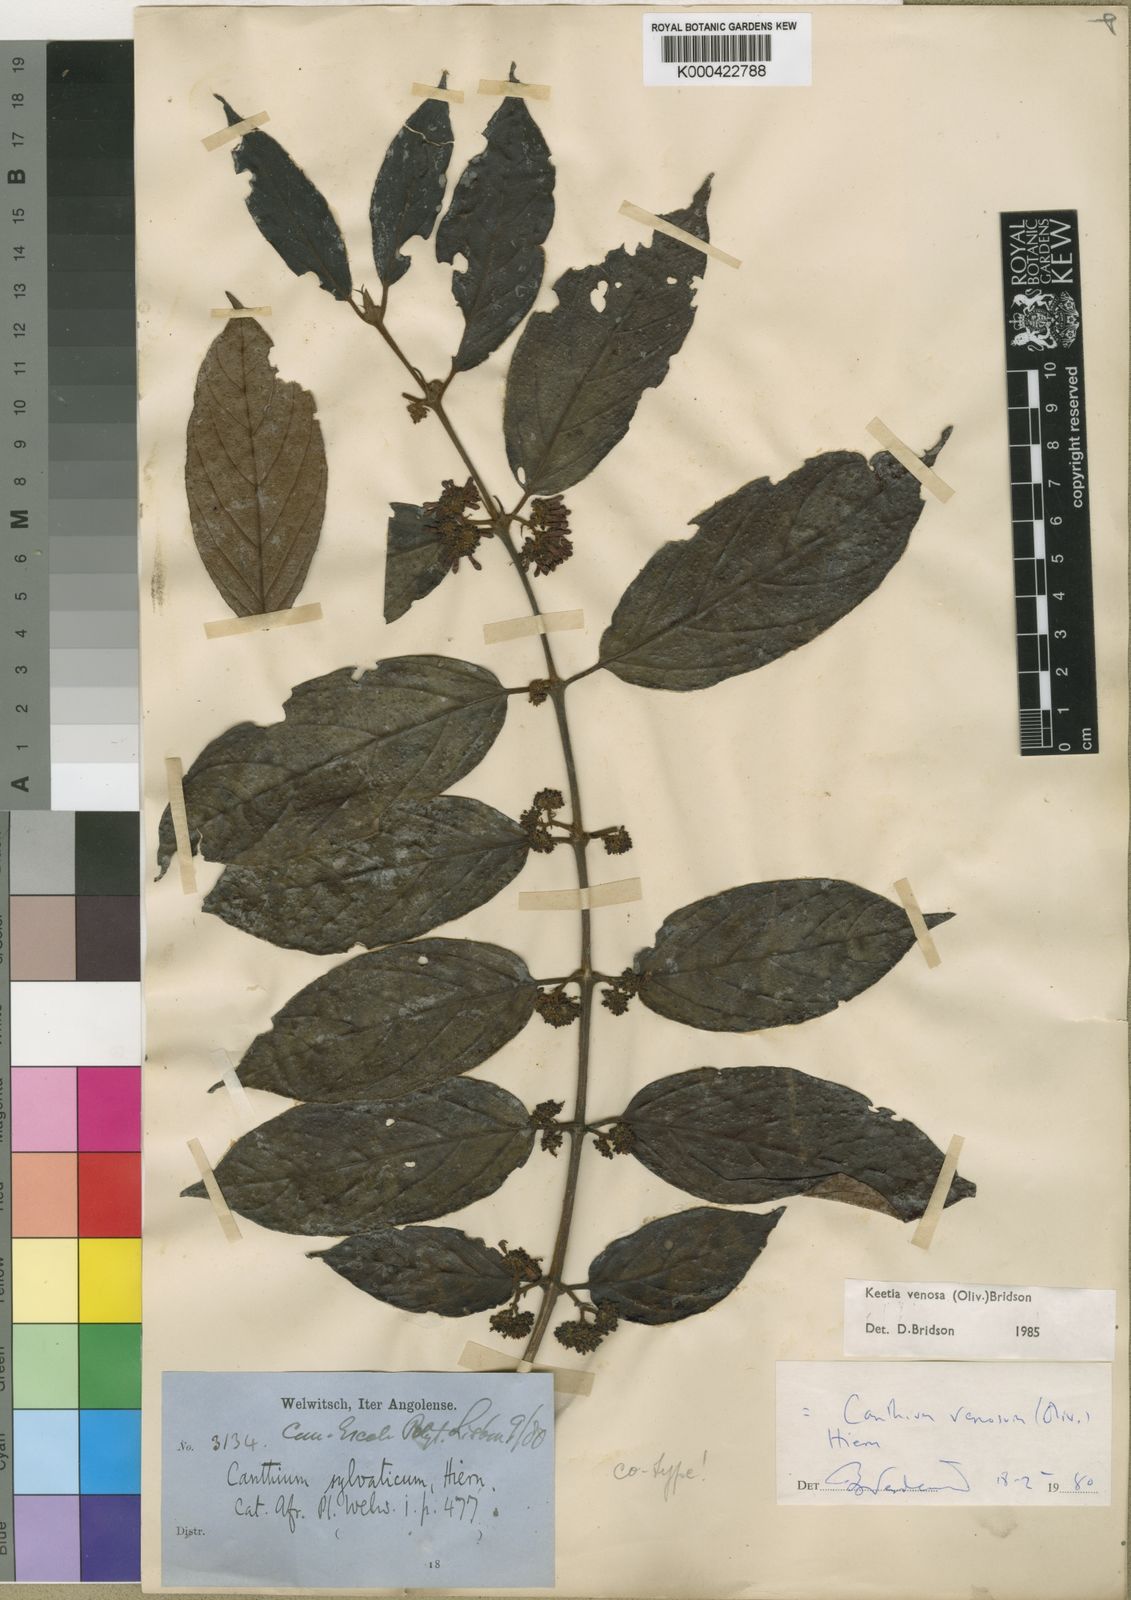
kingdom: Plantae
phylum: Tracheophyta
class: Magnoliopsida
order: Gentianales
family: Rubiaceae
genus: Keetia
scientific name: Keetia venosa
